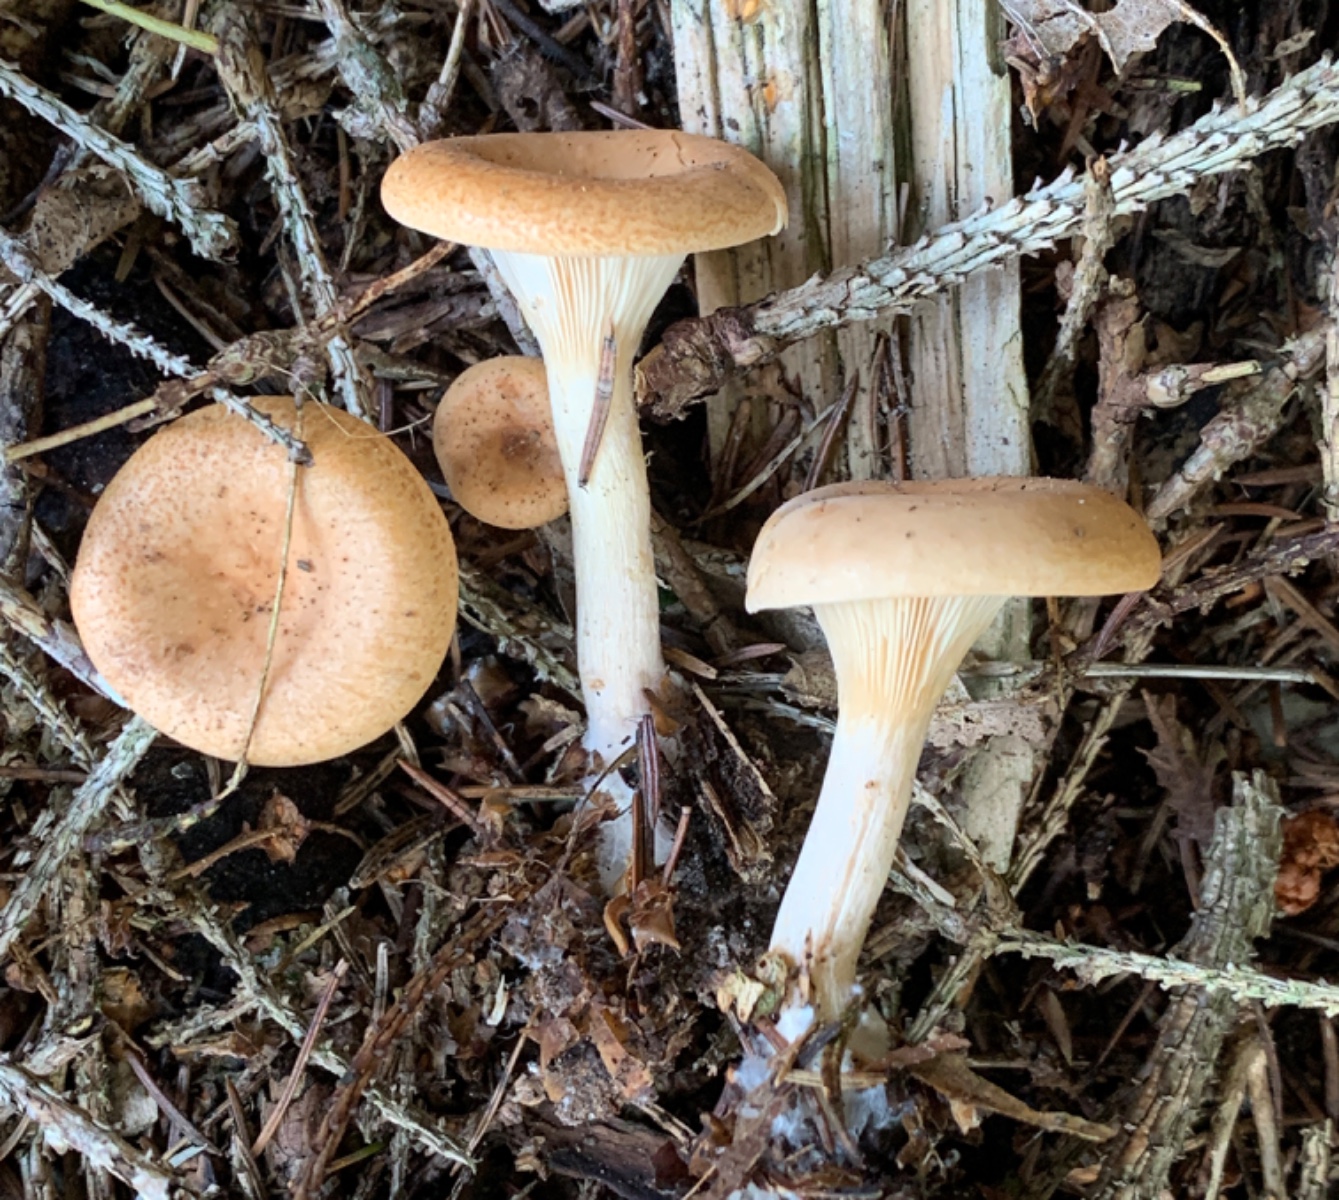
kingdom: Fungi
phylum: Basidiomycota
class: Agaricomycetes
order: Agaricales
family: Tricholomataceae
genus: Paralepista
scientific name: Paralepista flaccida
